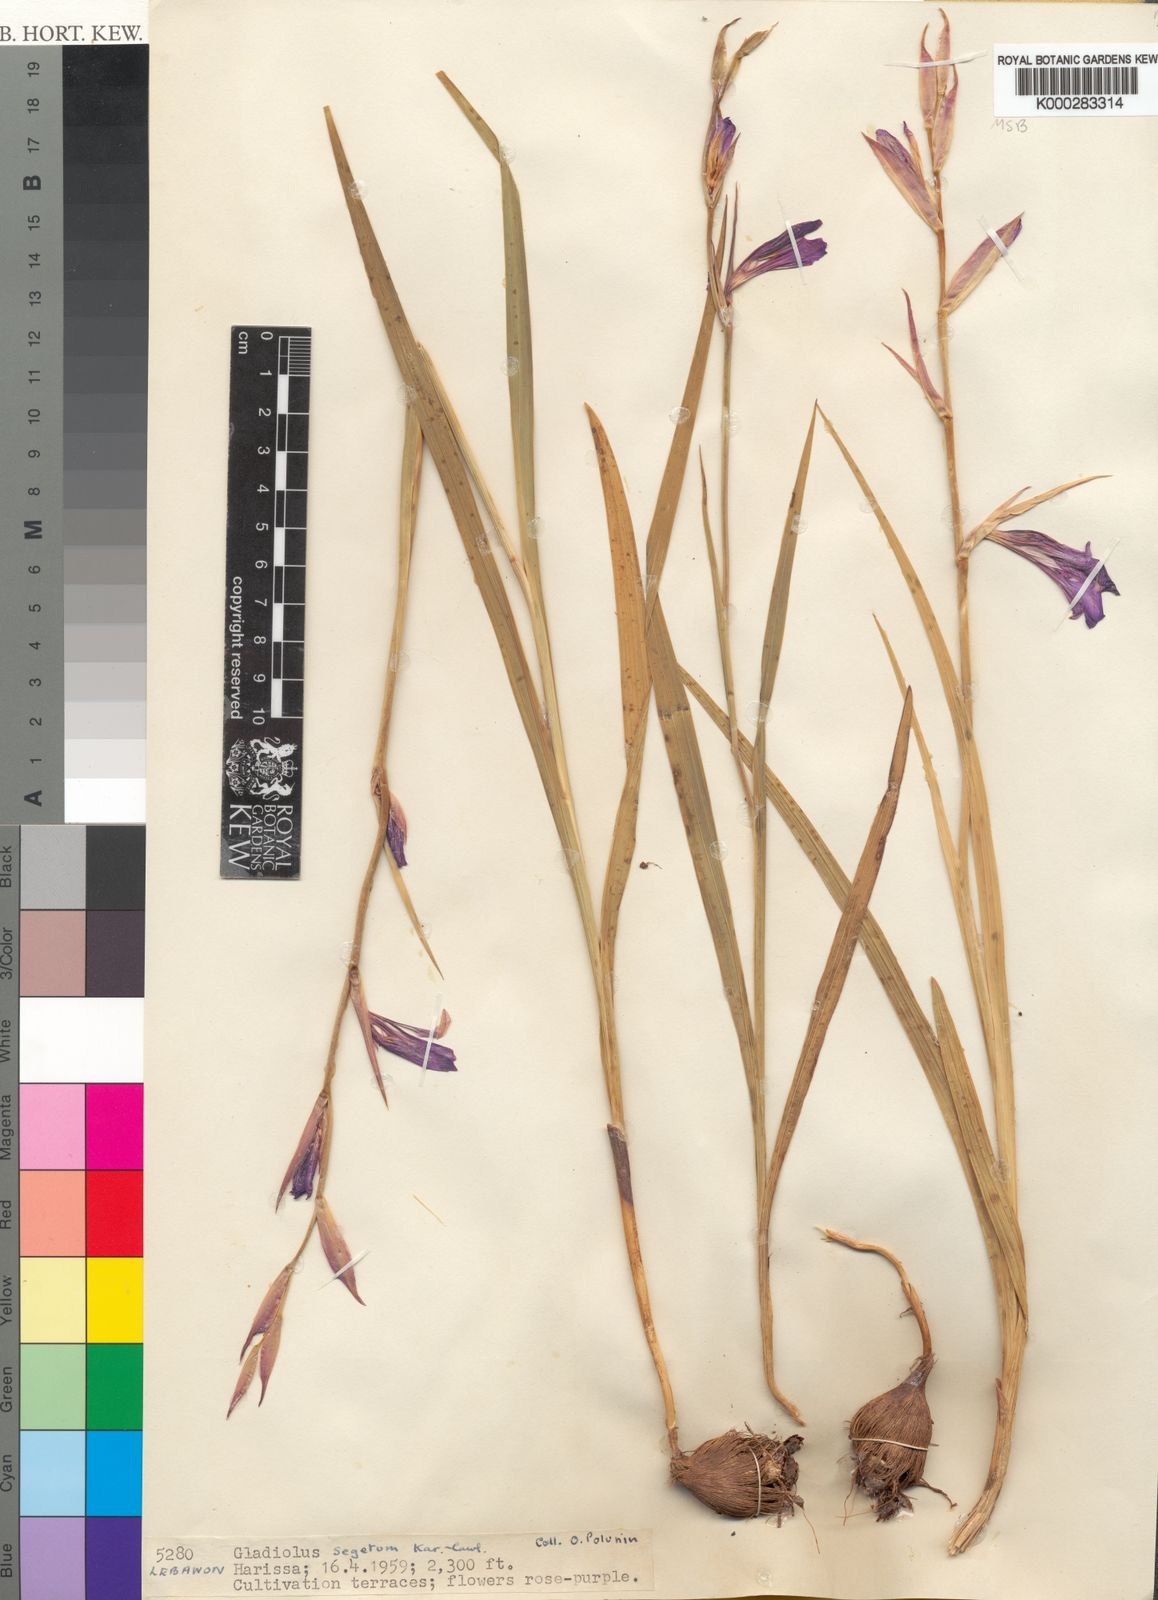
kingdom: Plantae
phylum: Tracheophyta
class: Liliopsida
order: Asparagales
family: Iridaceae
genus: Gladiolus
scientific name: Gladiolus italicus
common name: Field gladiolus
